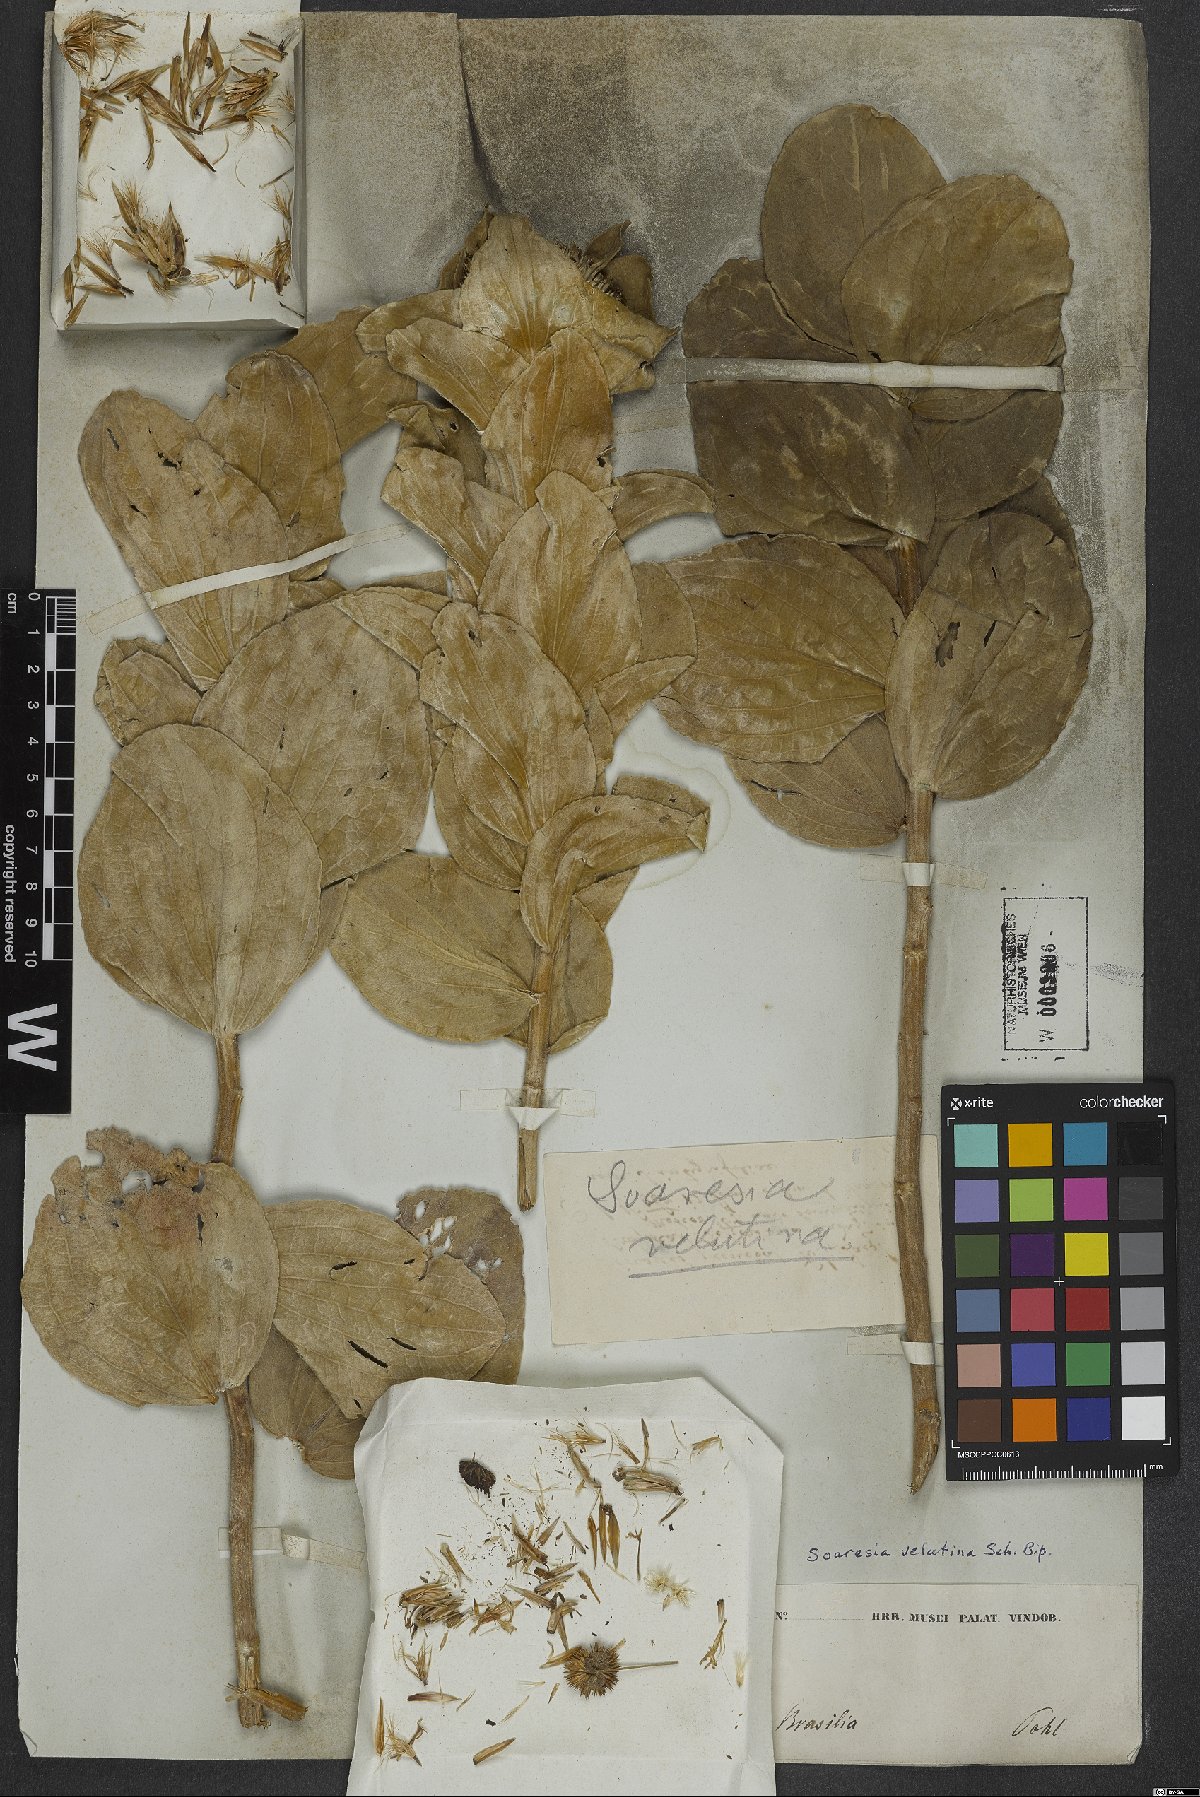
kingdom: Plantae
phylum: Tracheophyta
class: Magnoliopsida
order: Asterales
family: Asteraceae
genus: Soaresia
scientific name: Soaresia velutina
